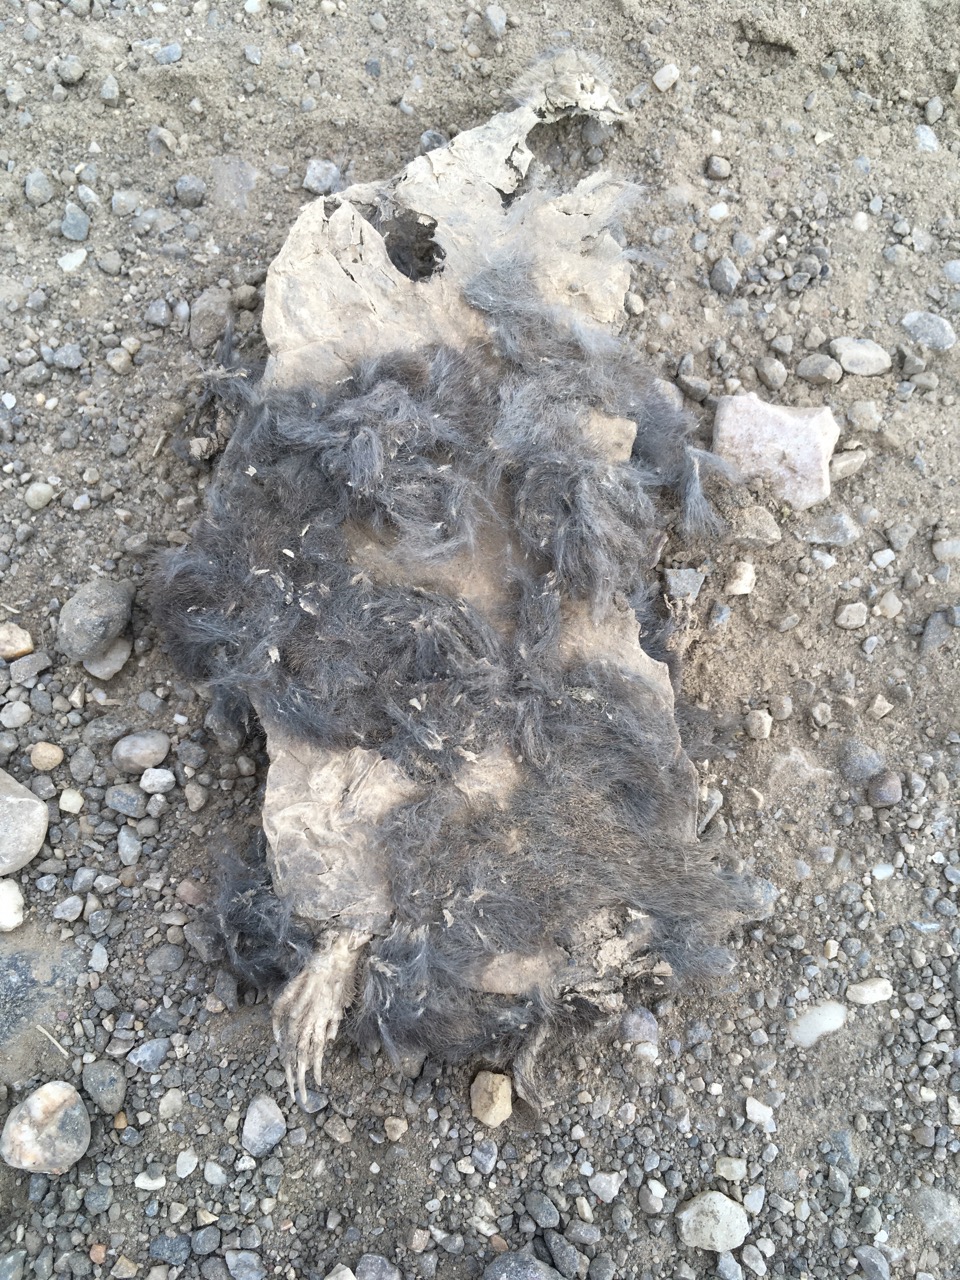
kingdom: Animalia
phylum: Chordata
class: Mammalia
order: Soricomorpha
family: Talpidae
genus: Talpa
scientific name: Talpa europaea
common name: European mole
